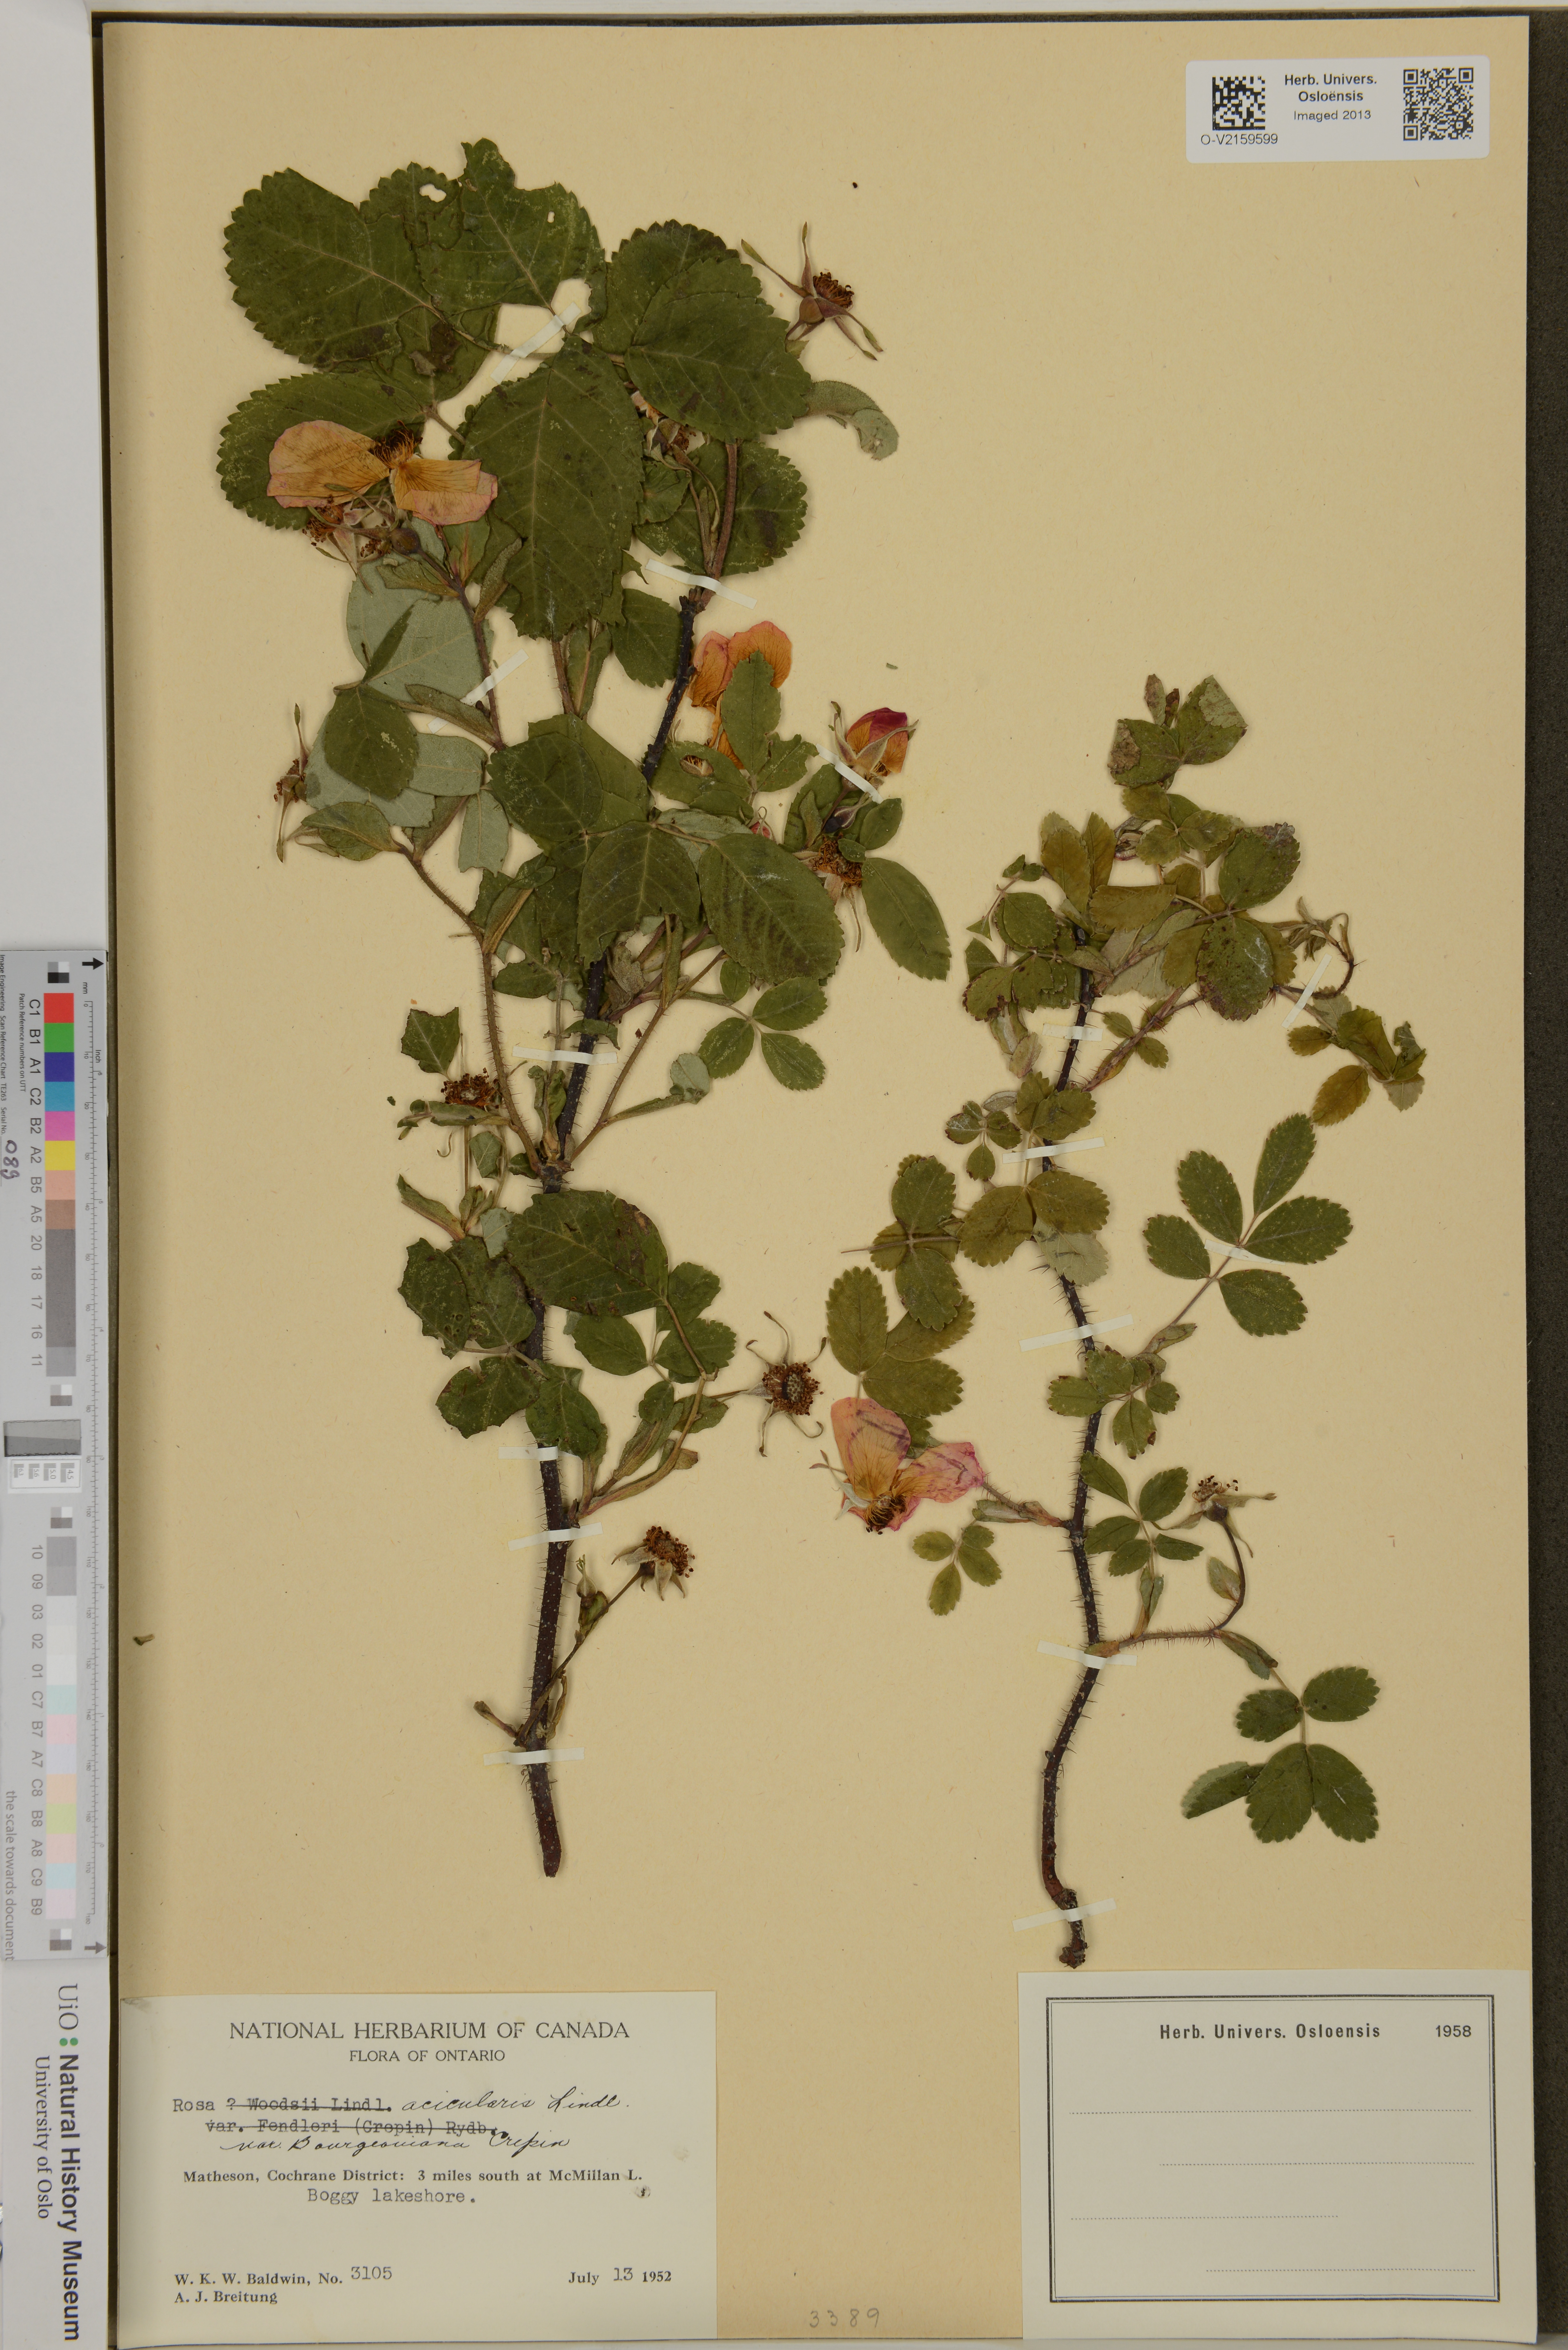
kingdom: Plantae
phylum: Tracheophyta
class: Magnoliopsida
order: Rosales
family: Rosaceae
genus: Rosa
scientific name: Rosa acicularis
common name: Prickly rose
